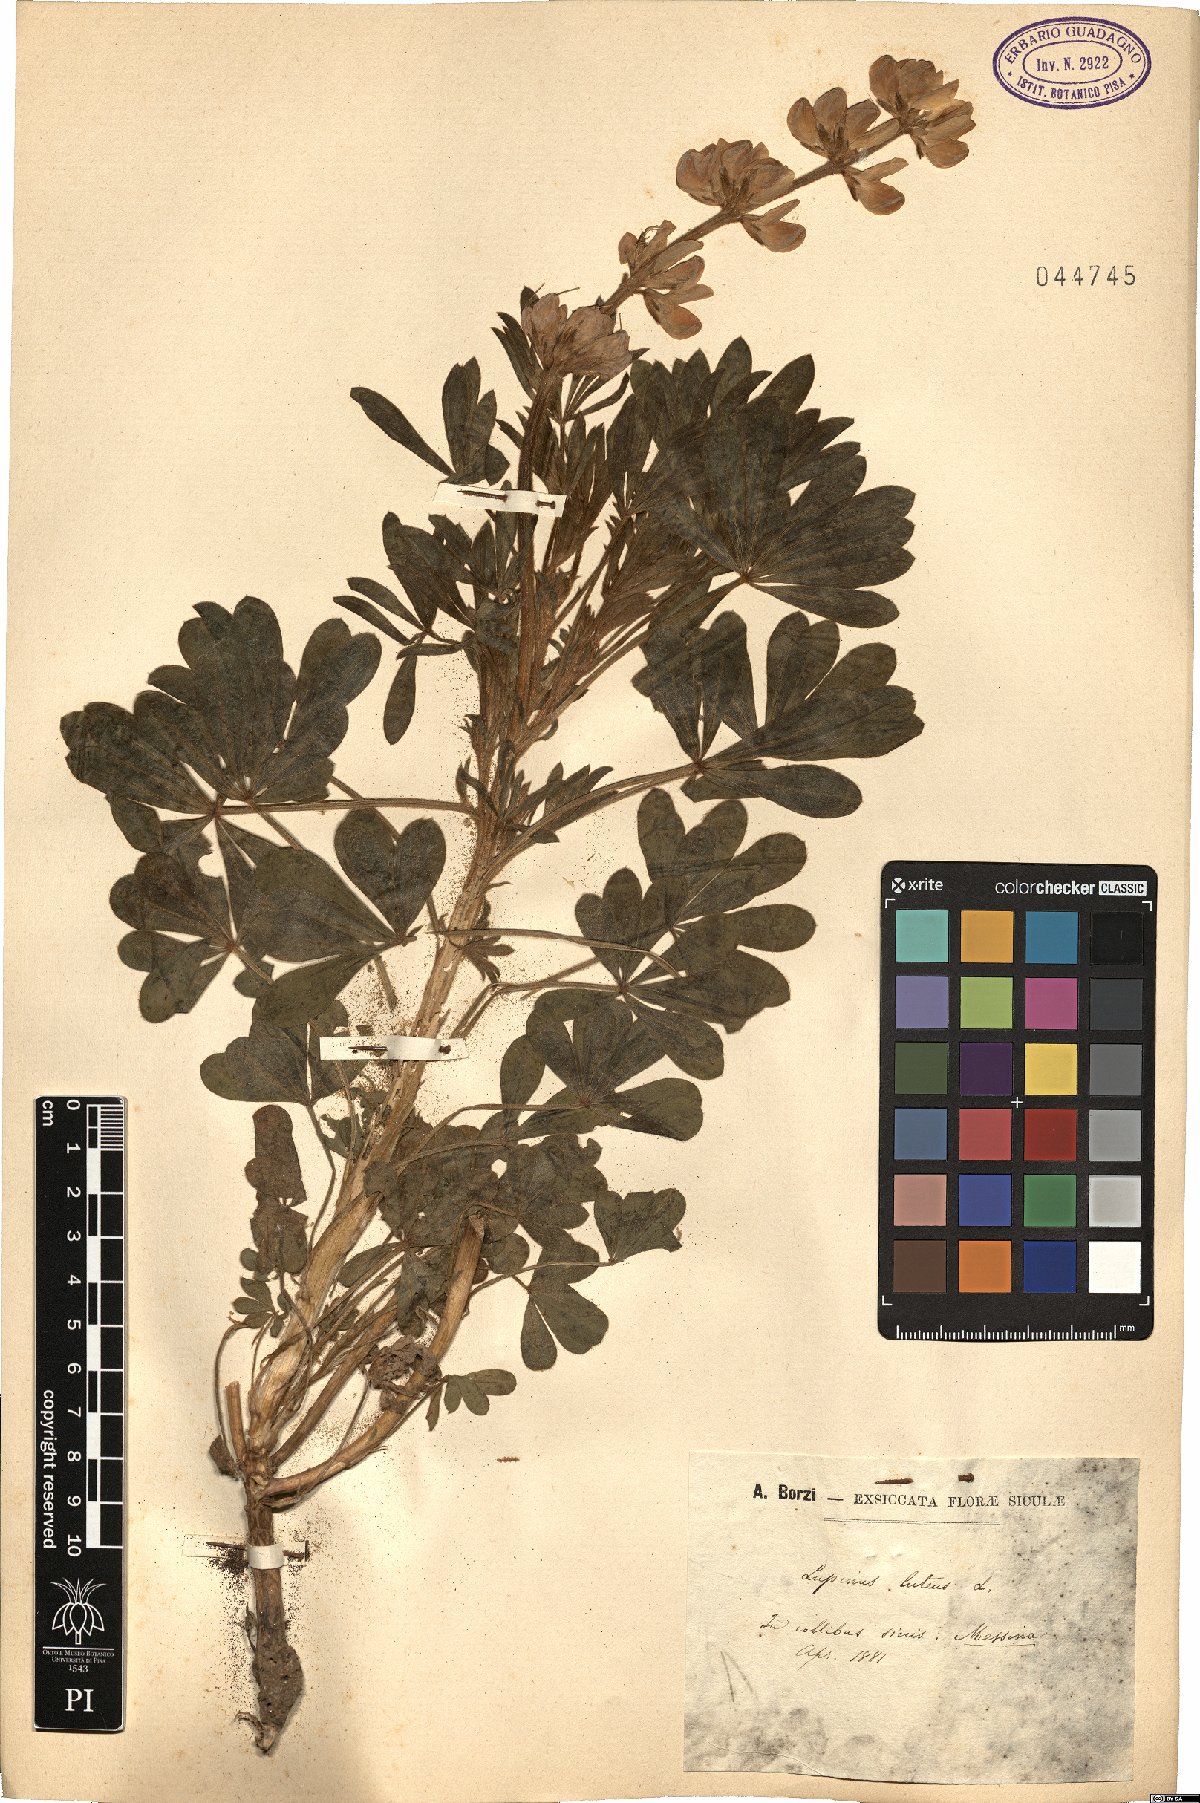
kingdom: Plantae
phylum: Tracheophyta
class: Magnoliopsida
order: Fabales
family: Fabaceae
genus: Lupinus
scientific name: Lupinus luteus
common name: European yellow lupine
